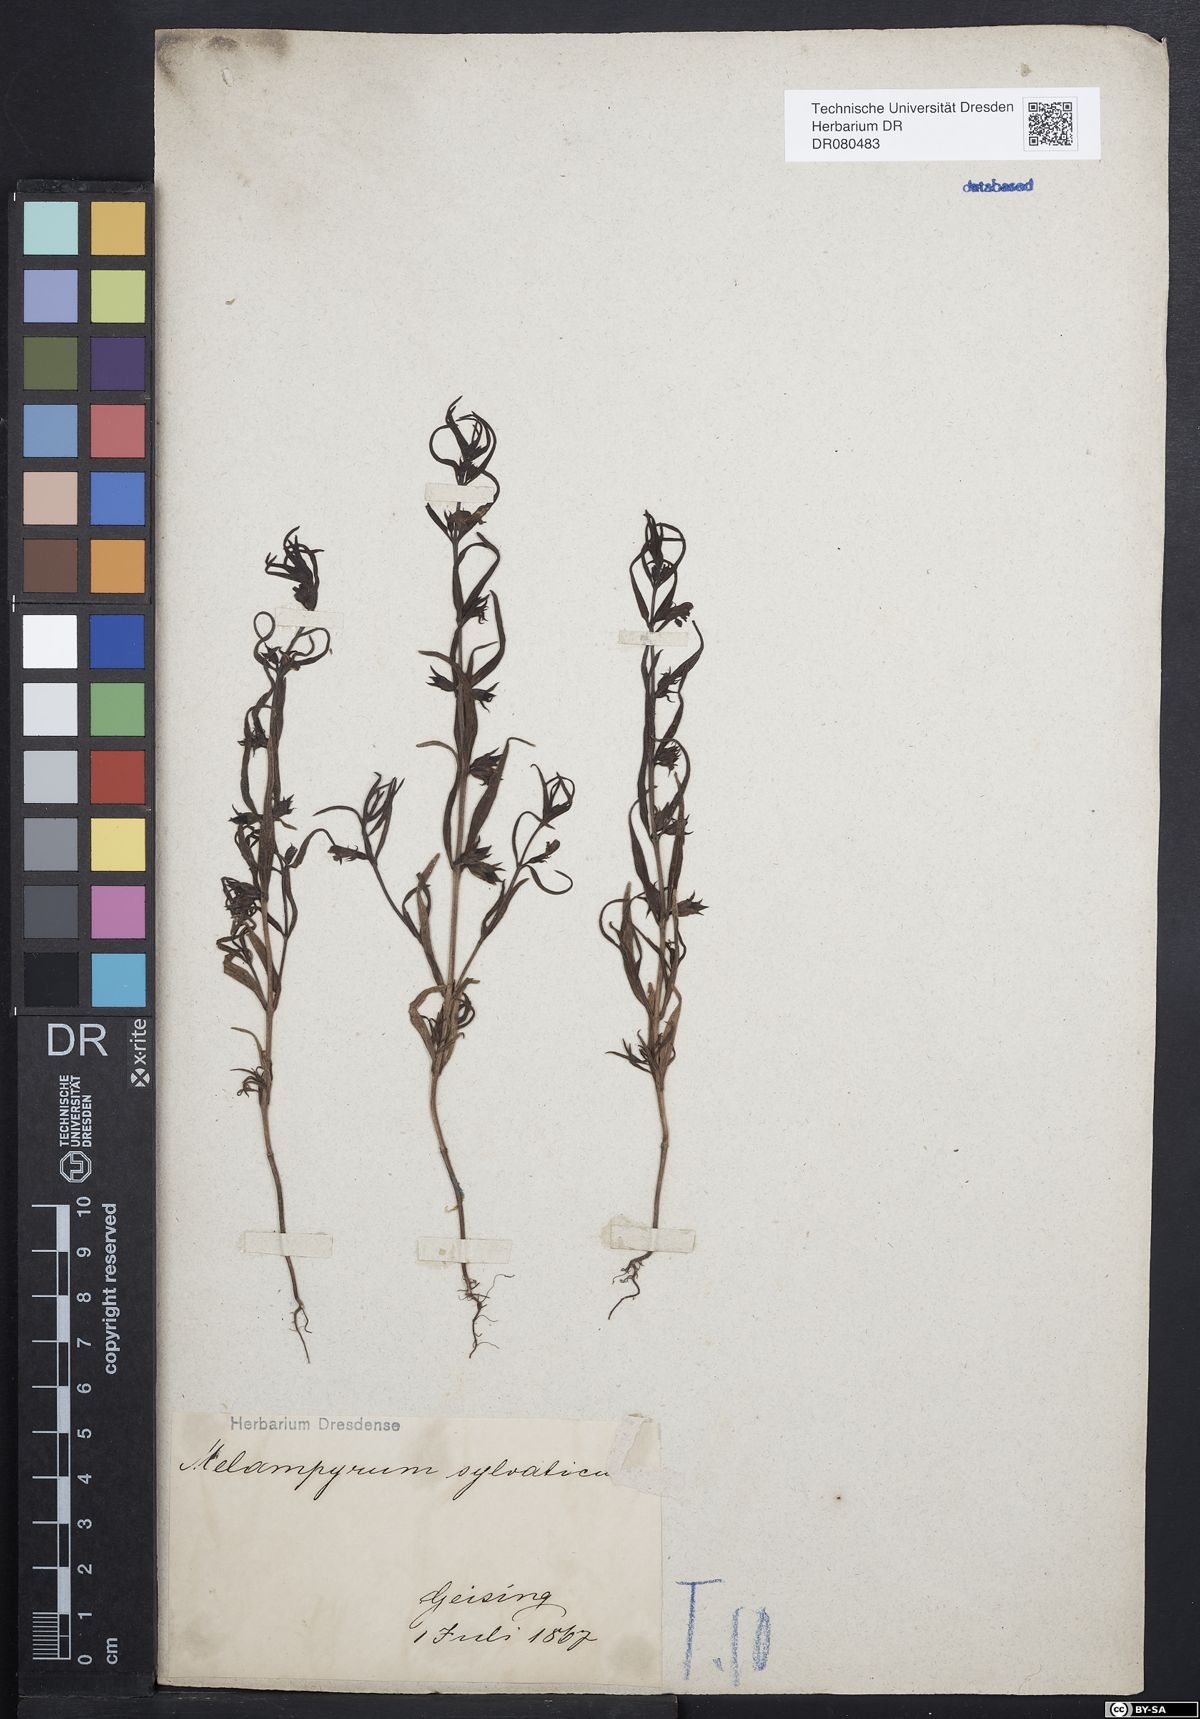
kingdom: Plantae
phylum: Tracheophyta
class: Magnoliopsida
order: Lamiales
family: Orobanchaceae
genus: Melampyrum
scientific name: Melampyrum sylvaticum
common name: Small cow-wheat
